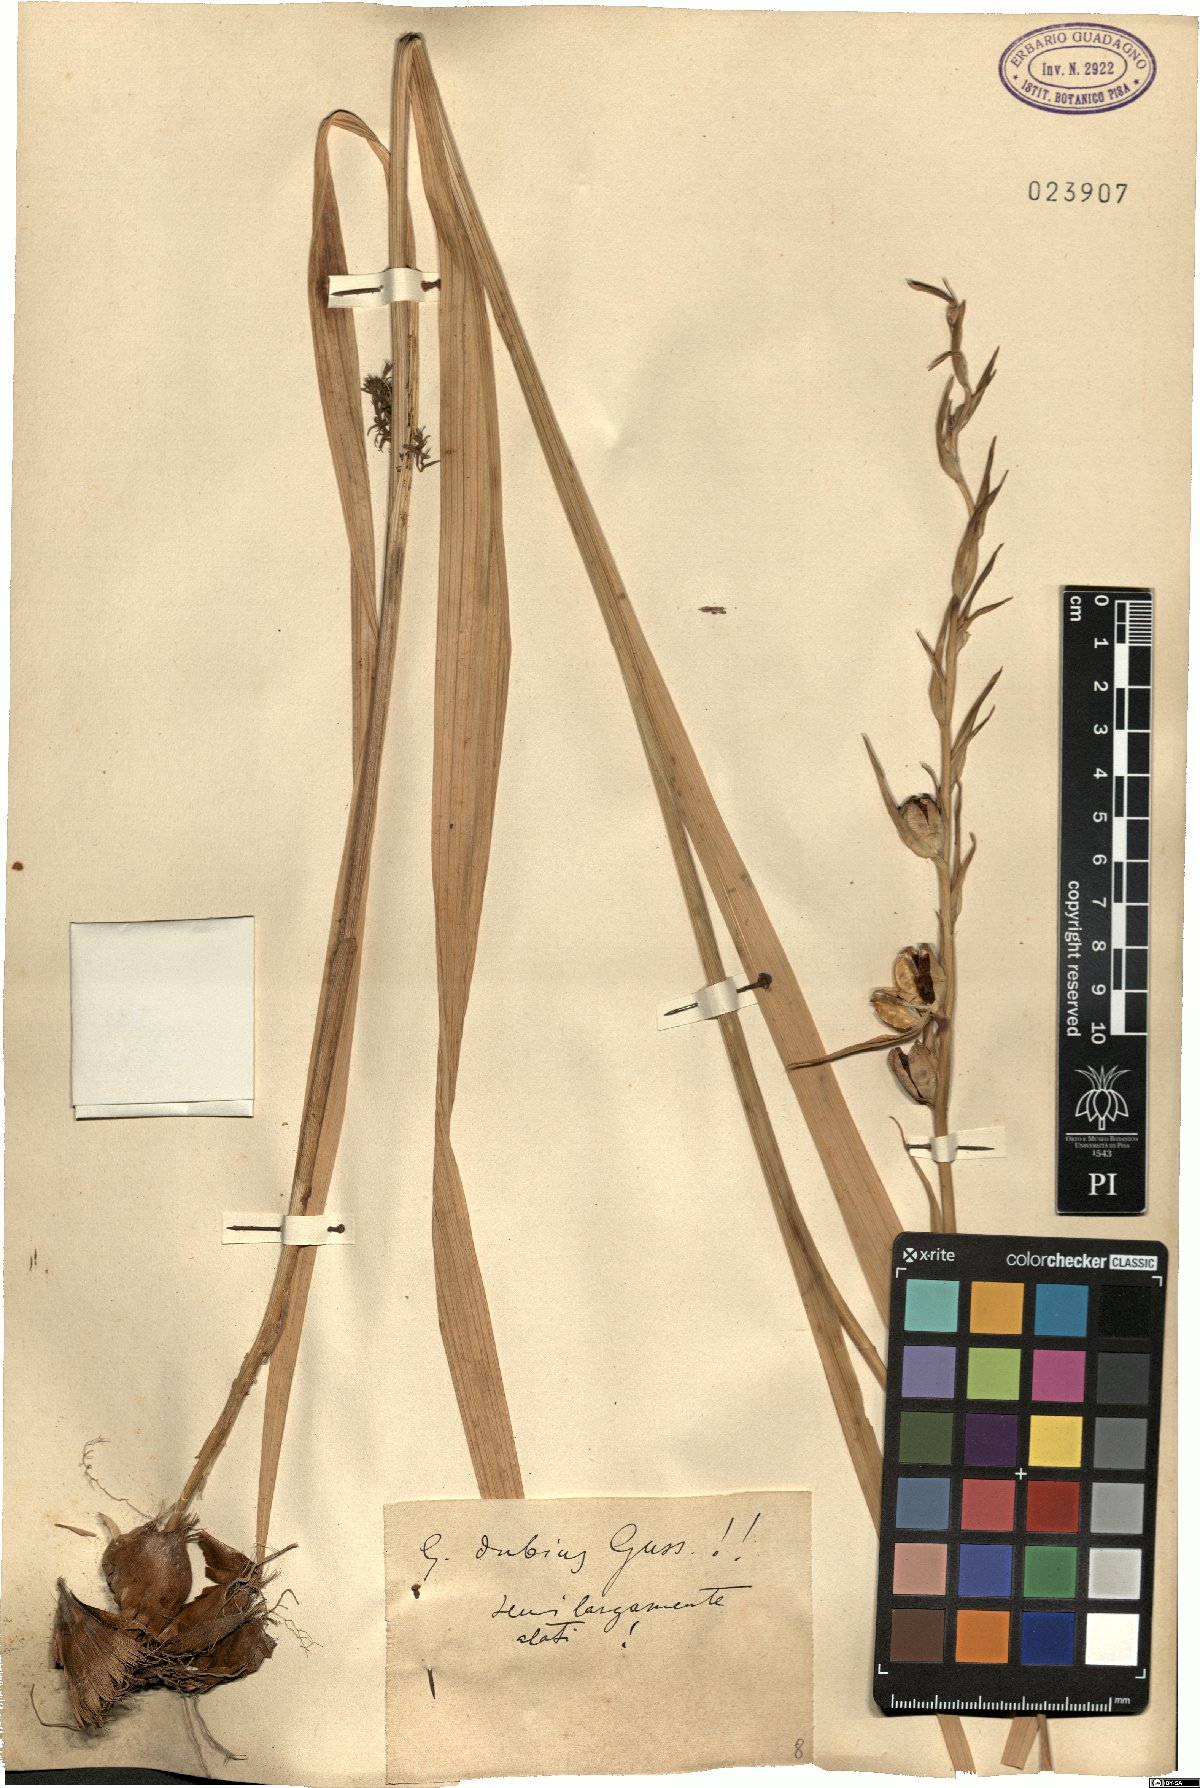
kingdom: Plantae
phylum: Tracheophyta
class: Liliopsida
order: Asparagales
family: Iridaceae
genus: Gladiolus
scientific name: Gladiolus dubius
